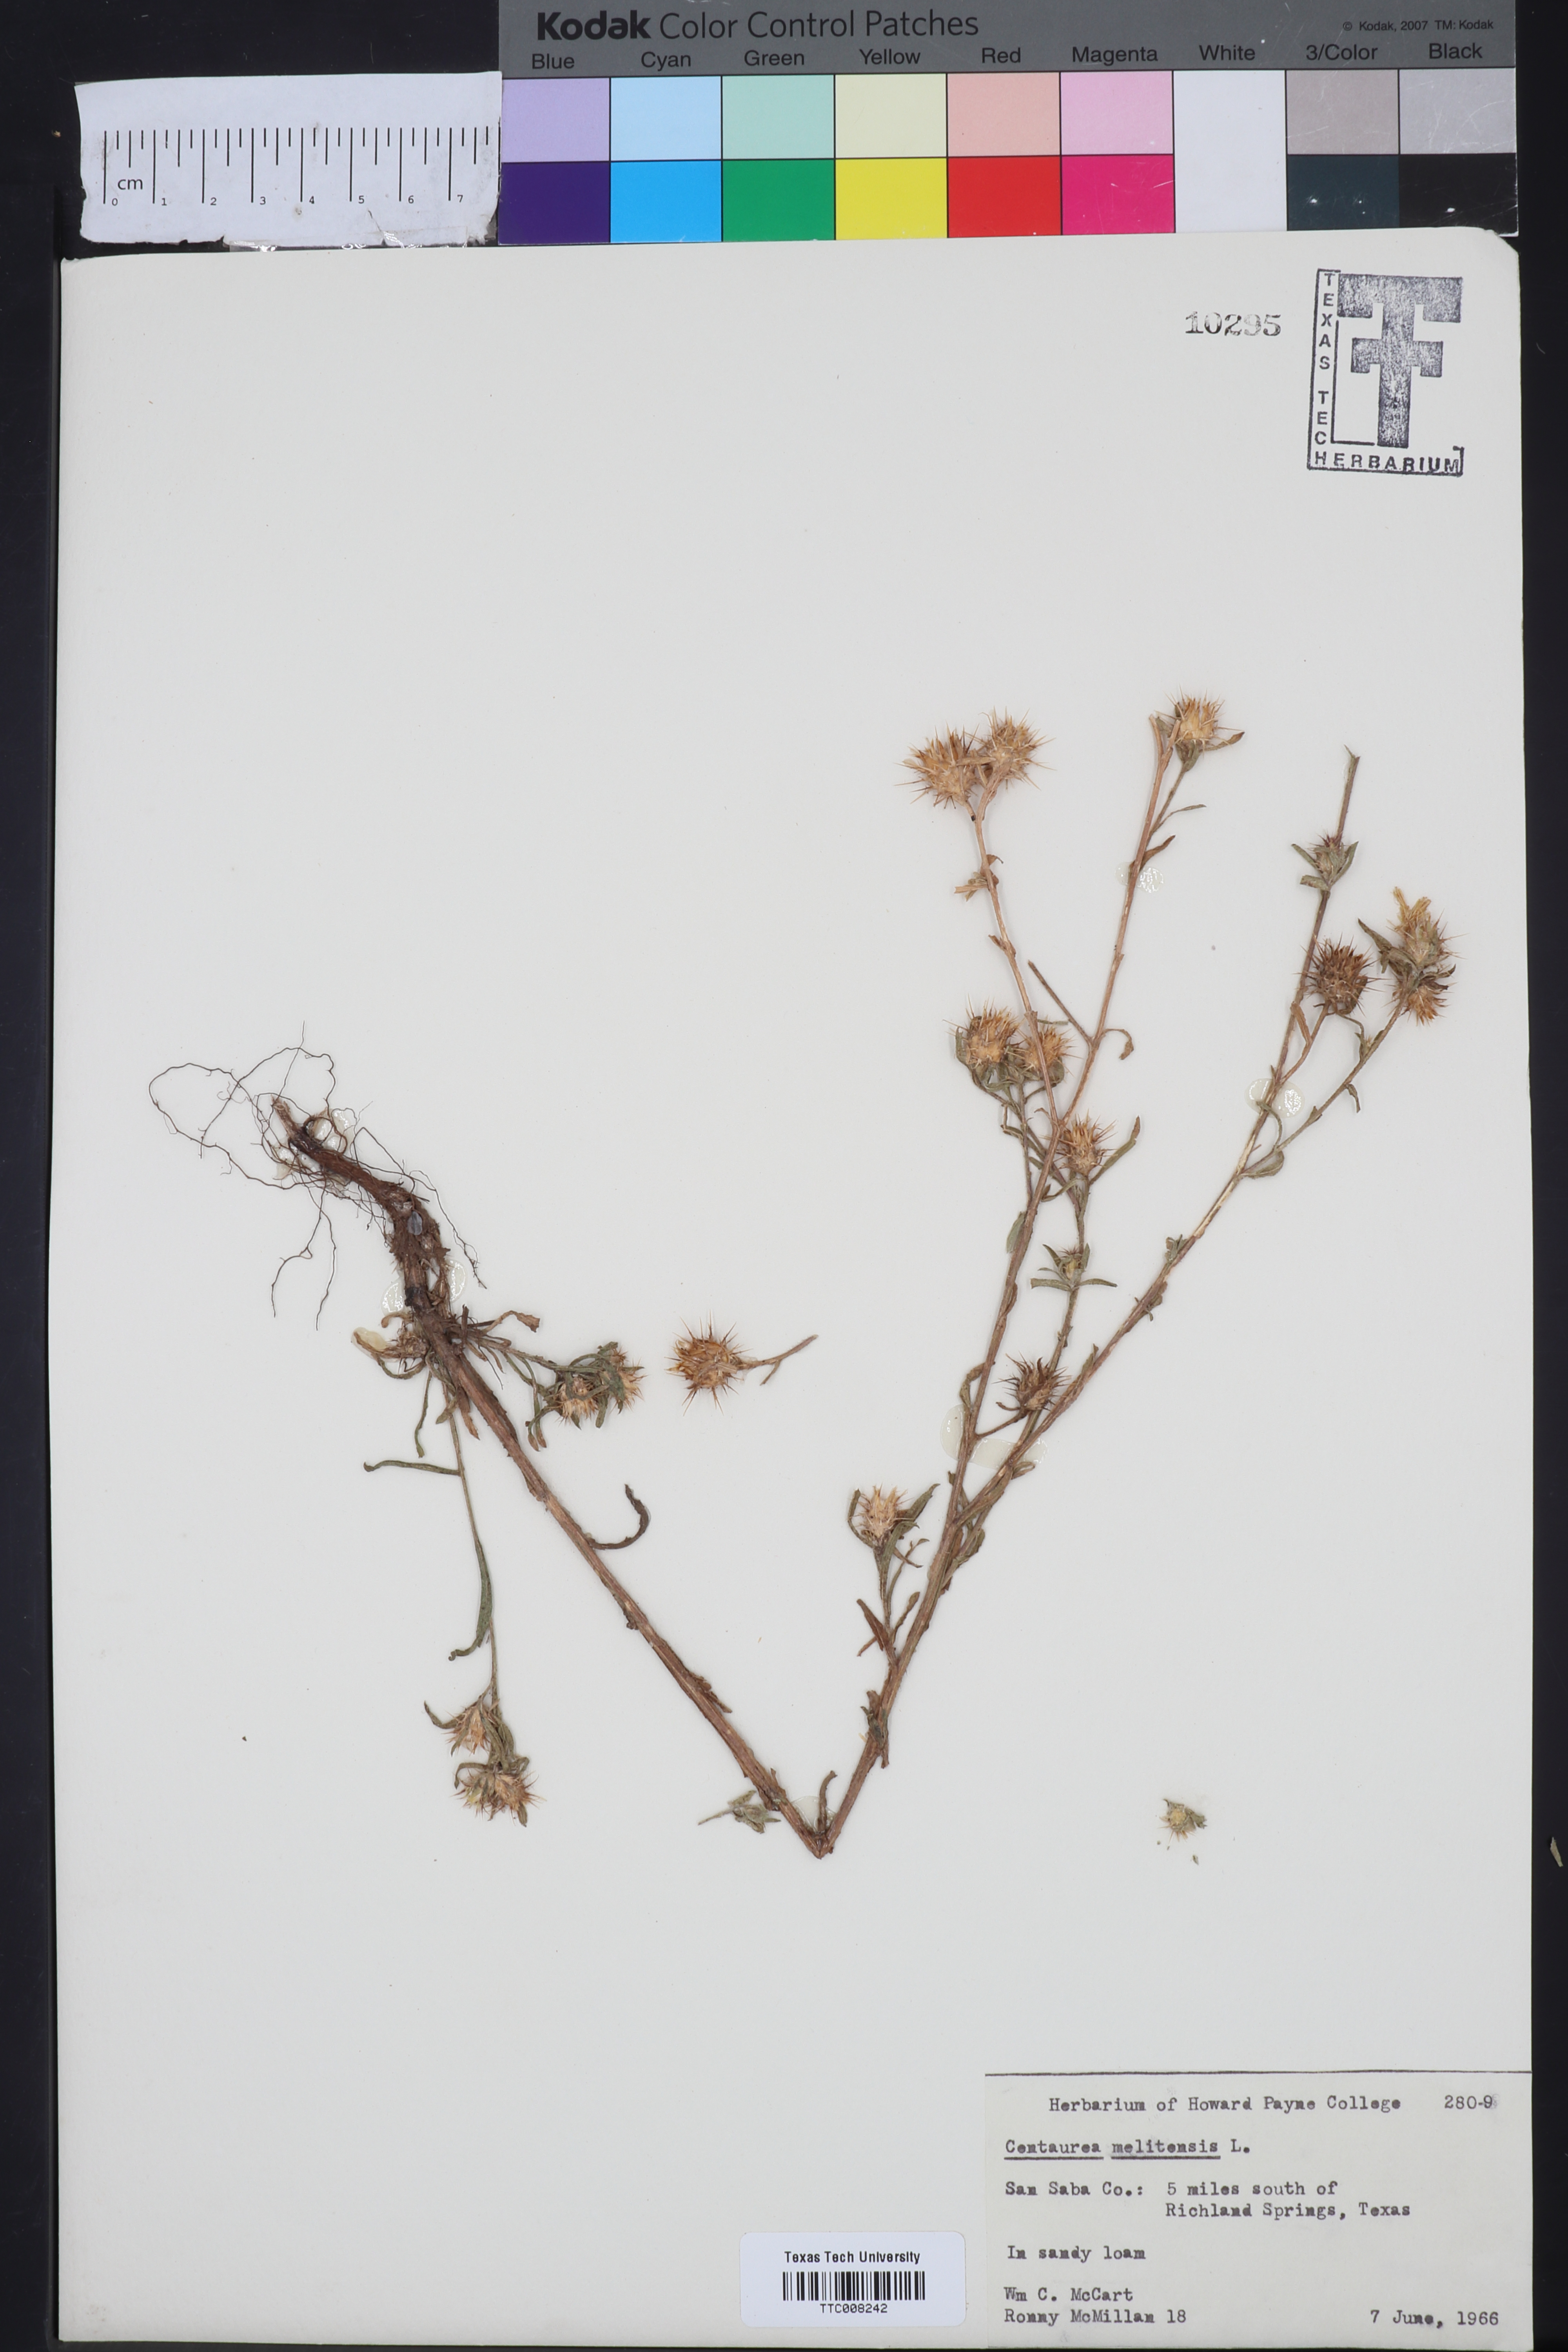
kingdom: Plantae
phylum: Tracheophyta
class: Magnoliopsida
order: Asterales
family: Asteraceae
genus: Centaurea
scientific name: Centaurea melitensis
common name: Maltese star-thistle
